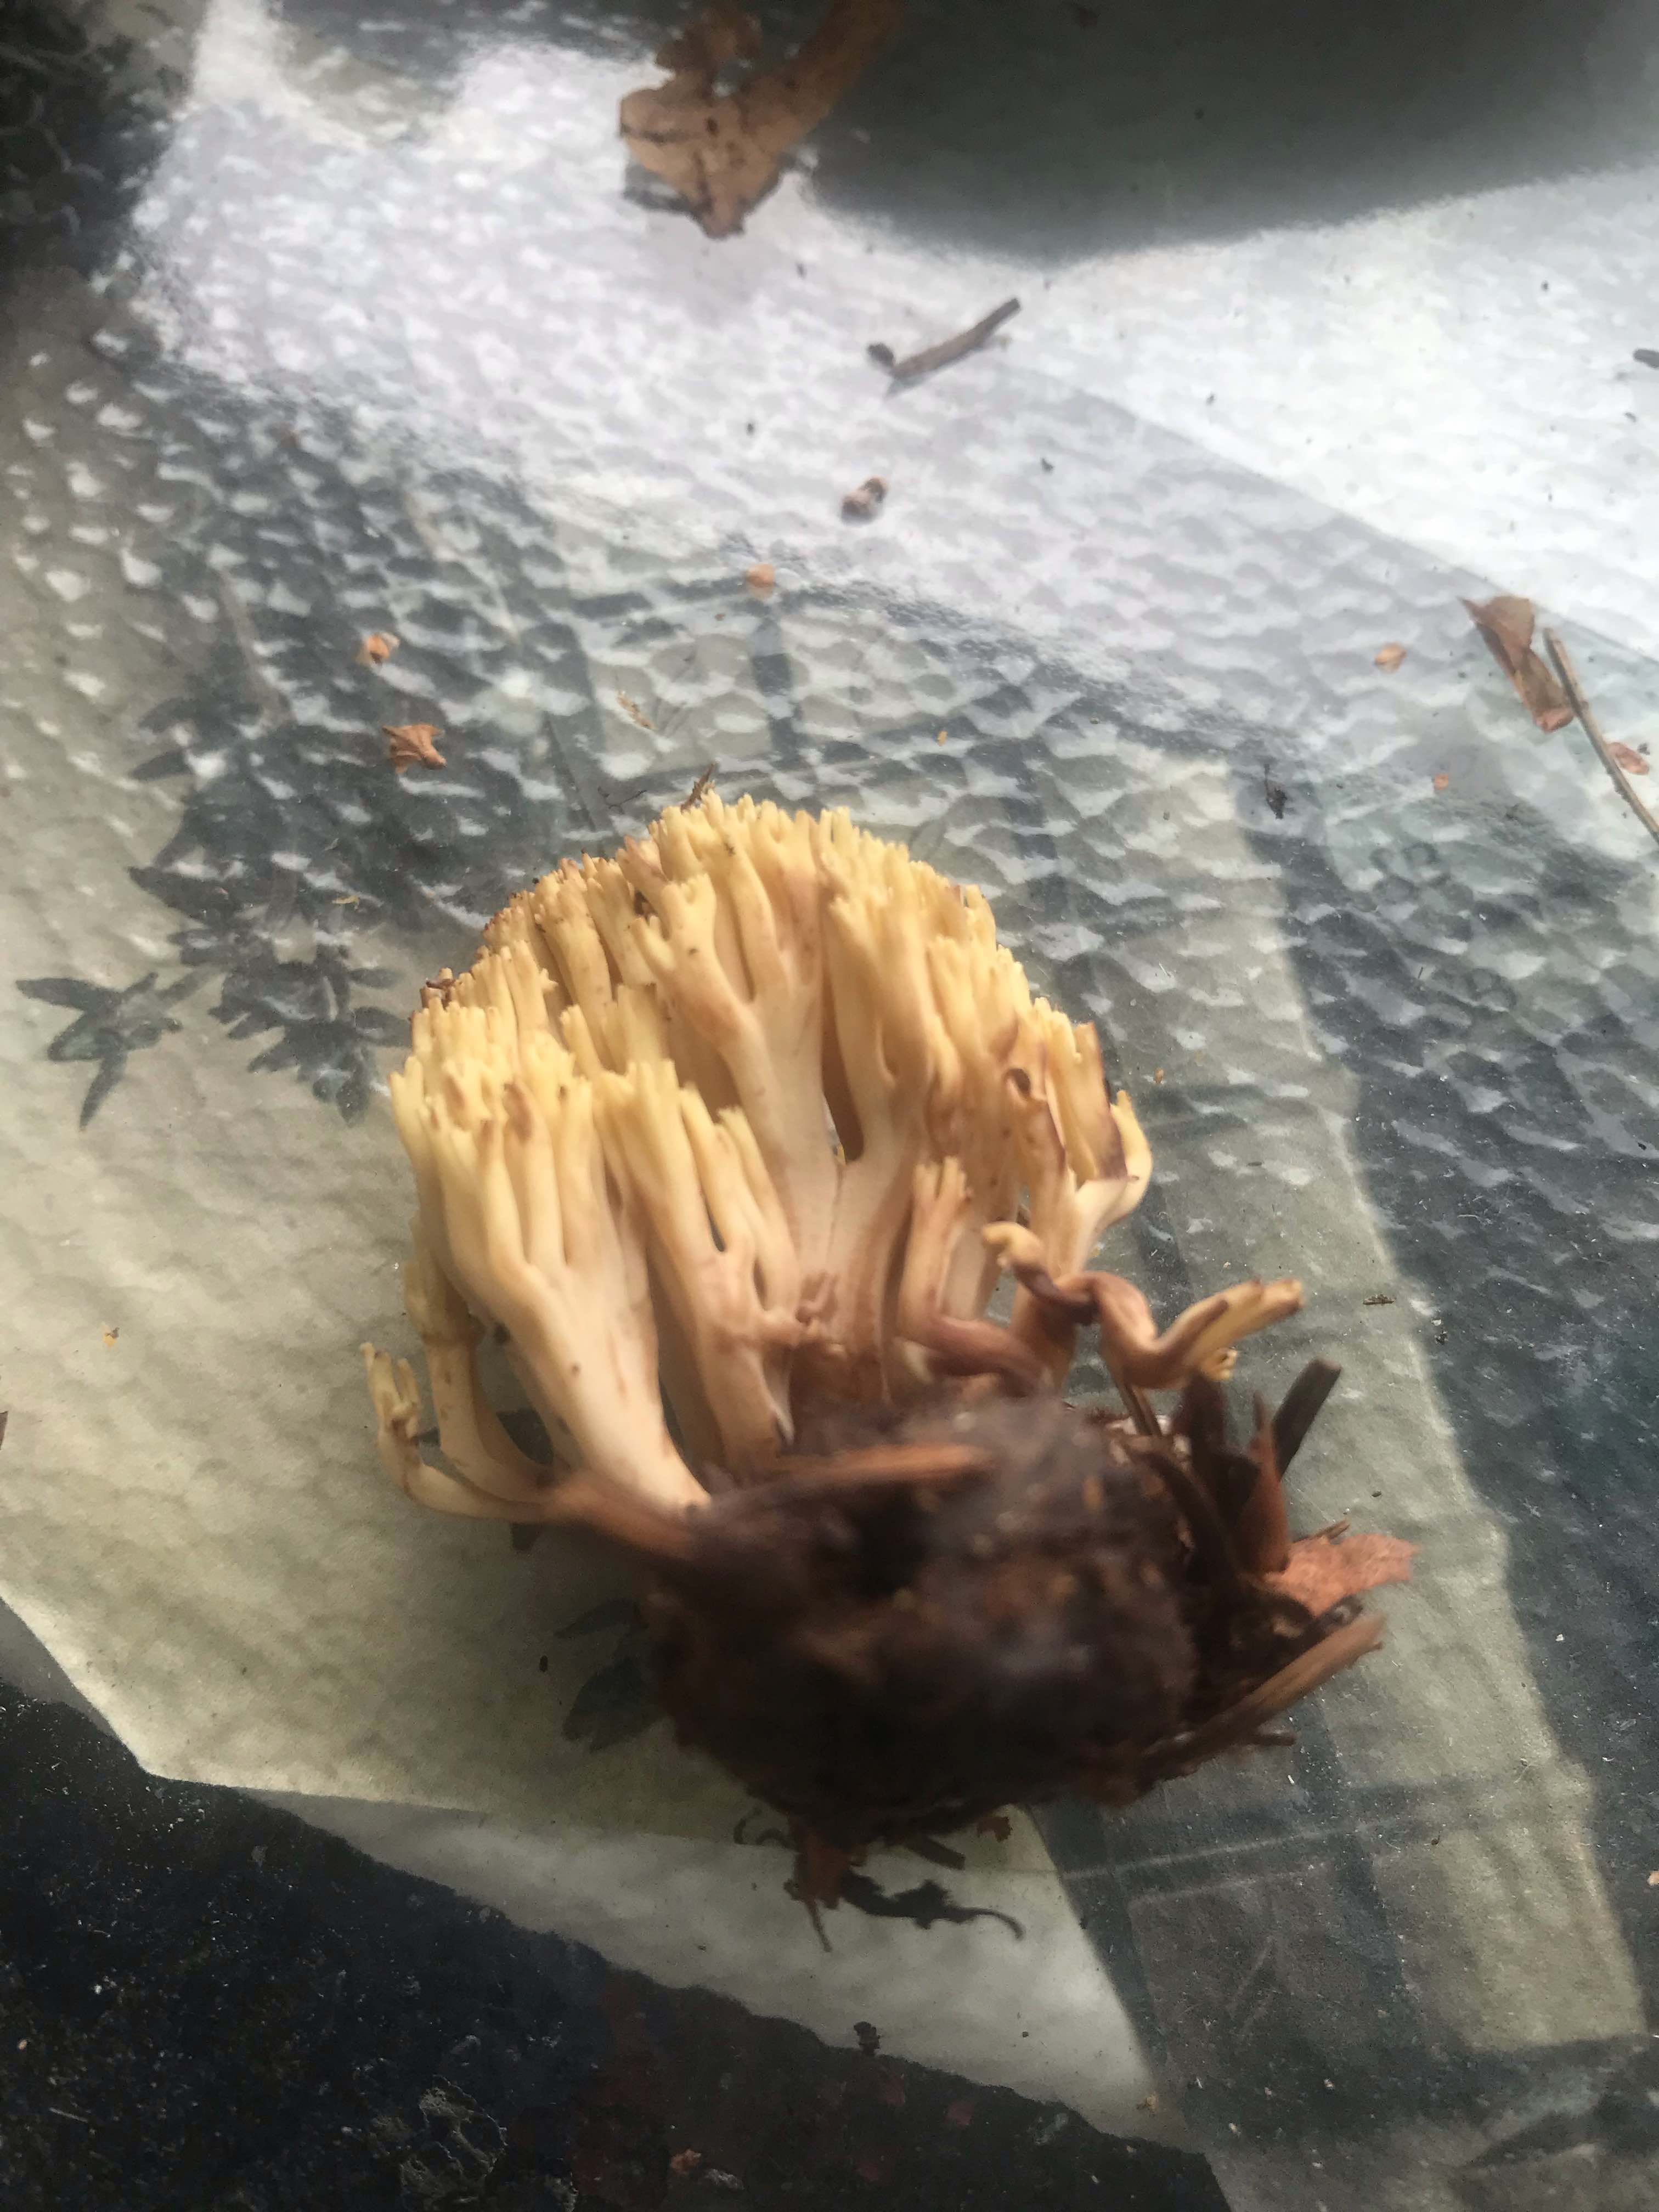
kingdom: Fungi
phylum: Basidiomycota
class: Agaricomycetes
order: Gomphales
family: Gomphaceae
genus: Ramaria
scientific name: Ramaria stricta
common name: rank koralsvamp
